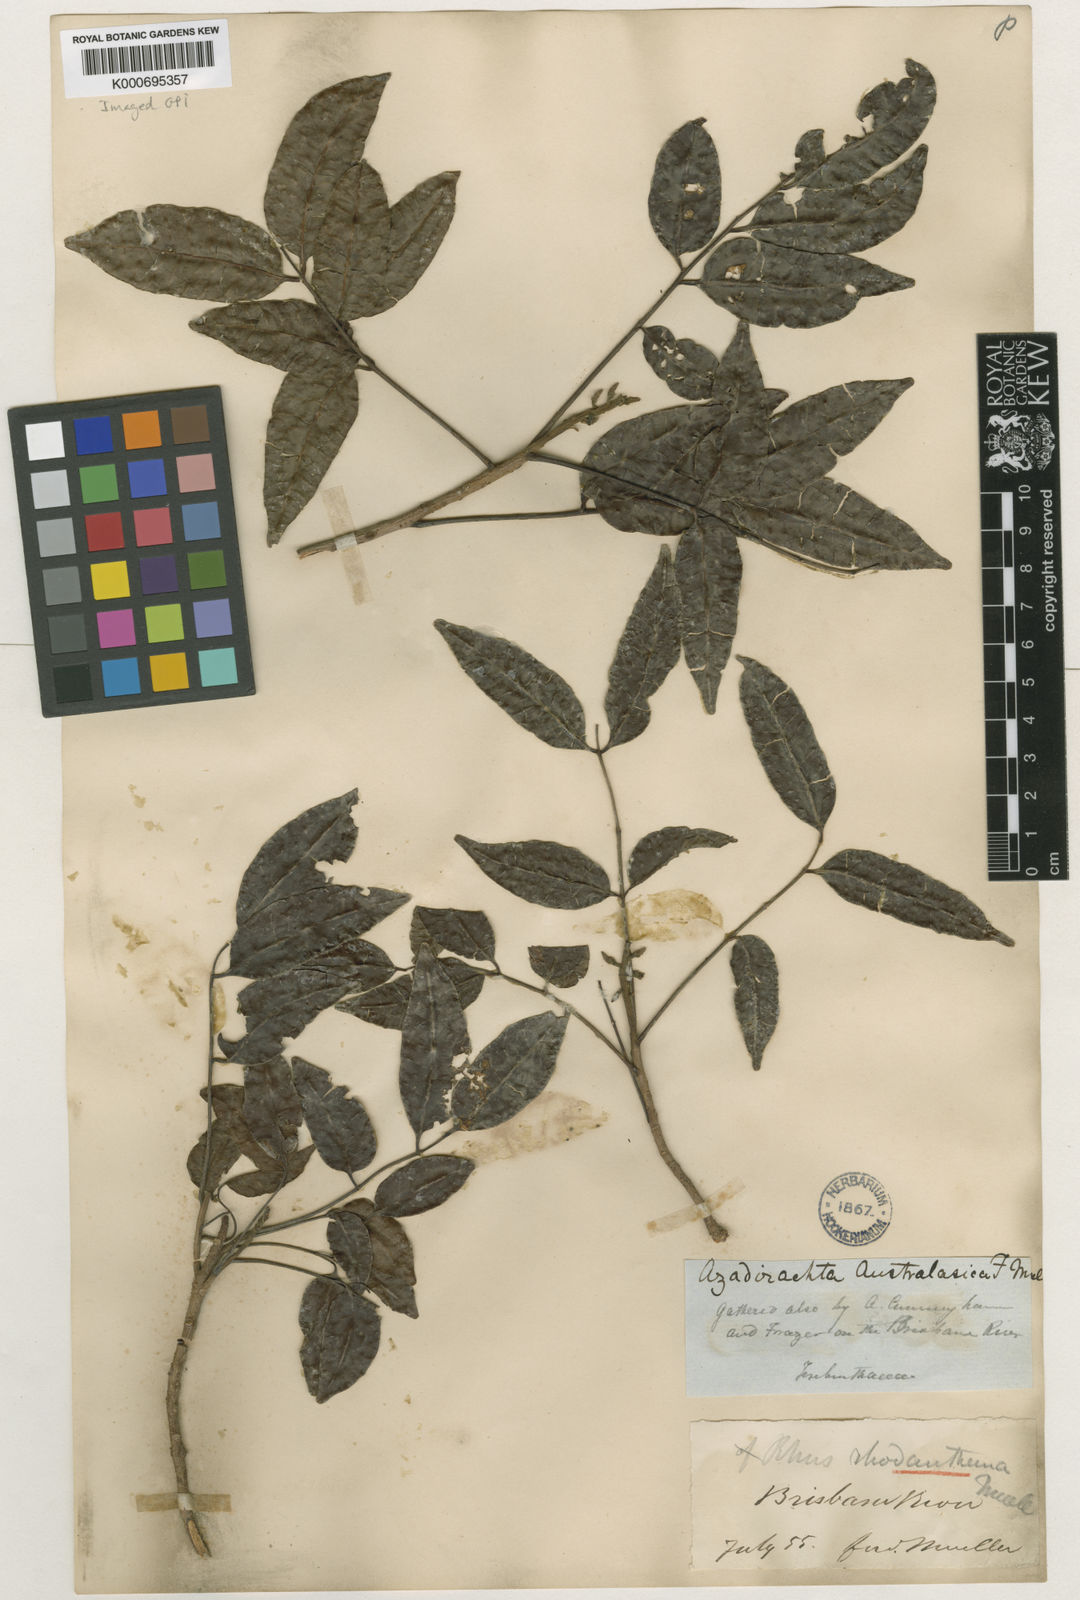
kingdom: Plantae
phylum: Tracheophyta
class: Magnoliopsida
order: Sapindales
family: Anacardiaceae
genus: Rhodosphaera
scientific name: Rhodosphaera rhodanthema
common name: Tulip satinwood
